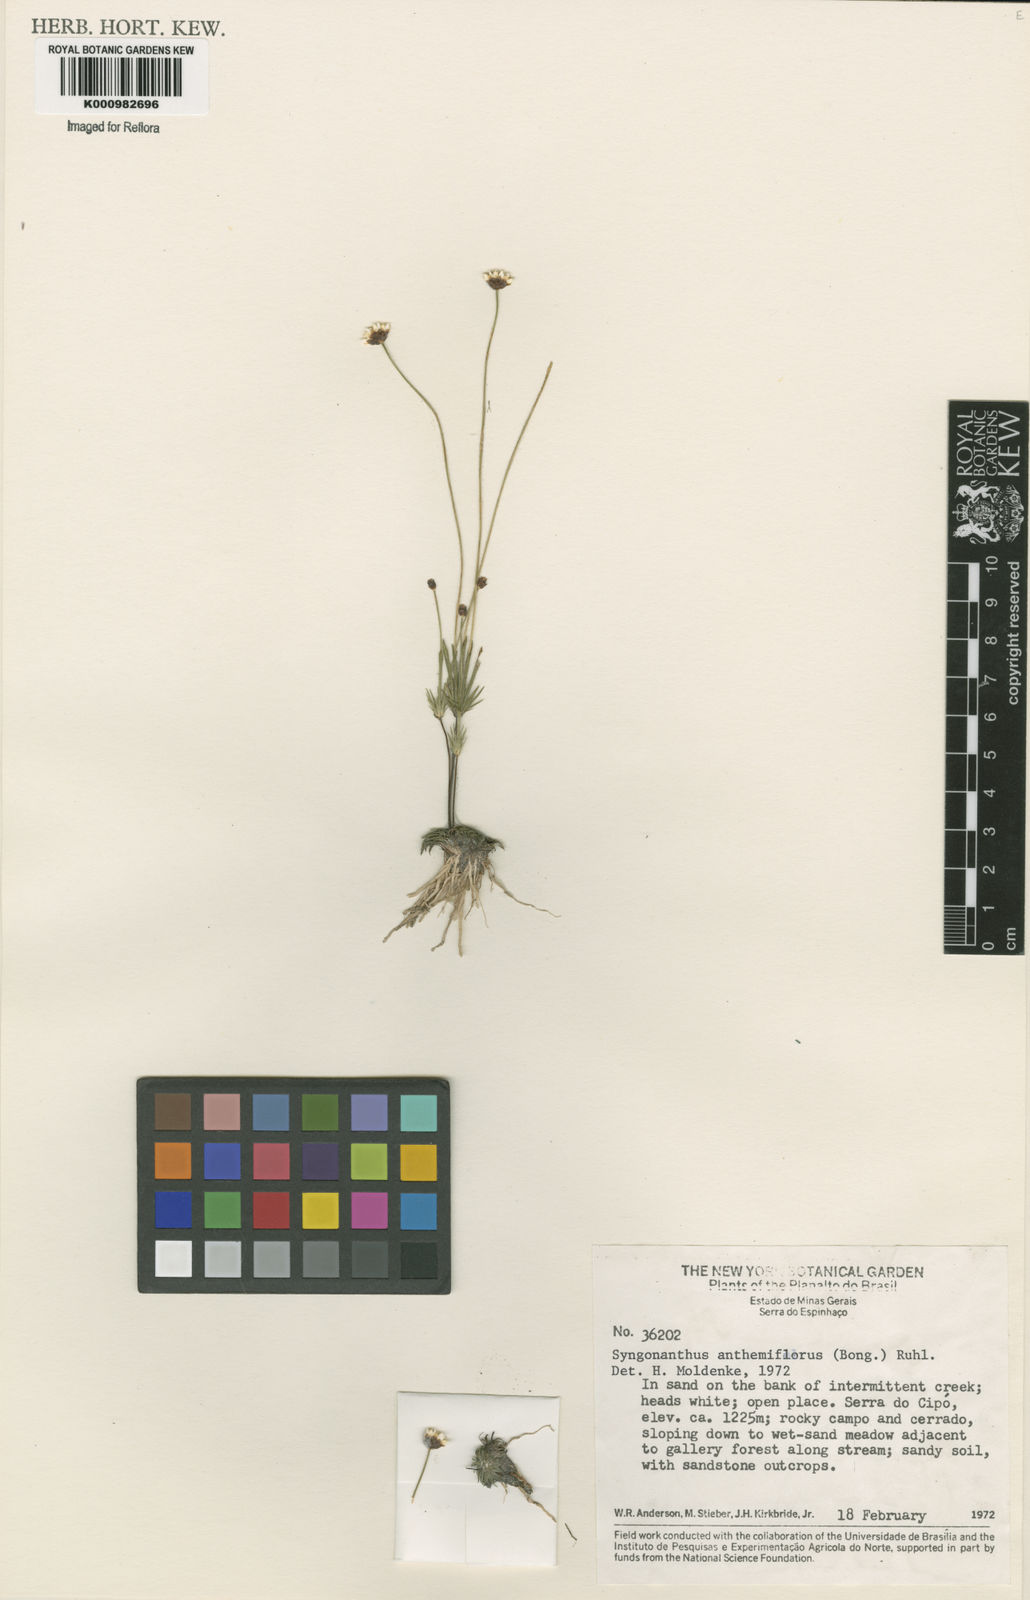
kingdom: Plantae
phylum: Tracheophyta
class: Liliopsida
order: Poales
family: Eriocaulaceae
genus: Syngonanthus
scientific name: Syngonanthus anthemidiflorus
